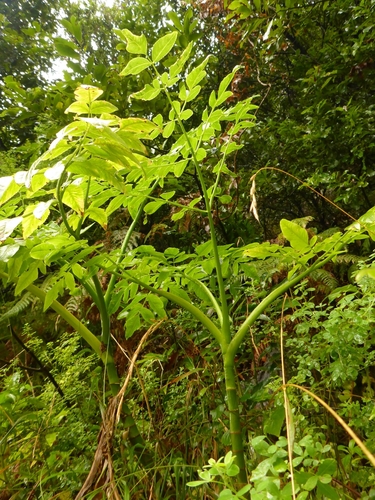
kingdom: Plantae
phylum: Tracheophyta
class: Magnoliopsida
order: Apiales
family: Apiaceae
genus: Daucus
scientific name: Daucus decipiens
